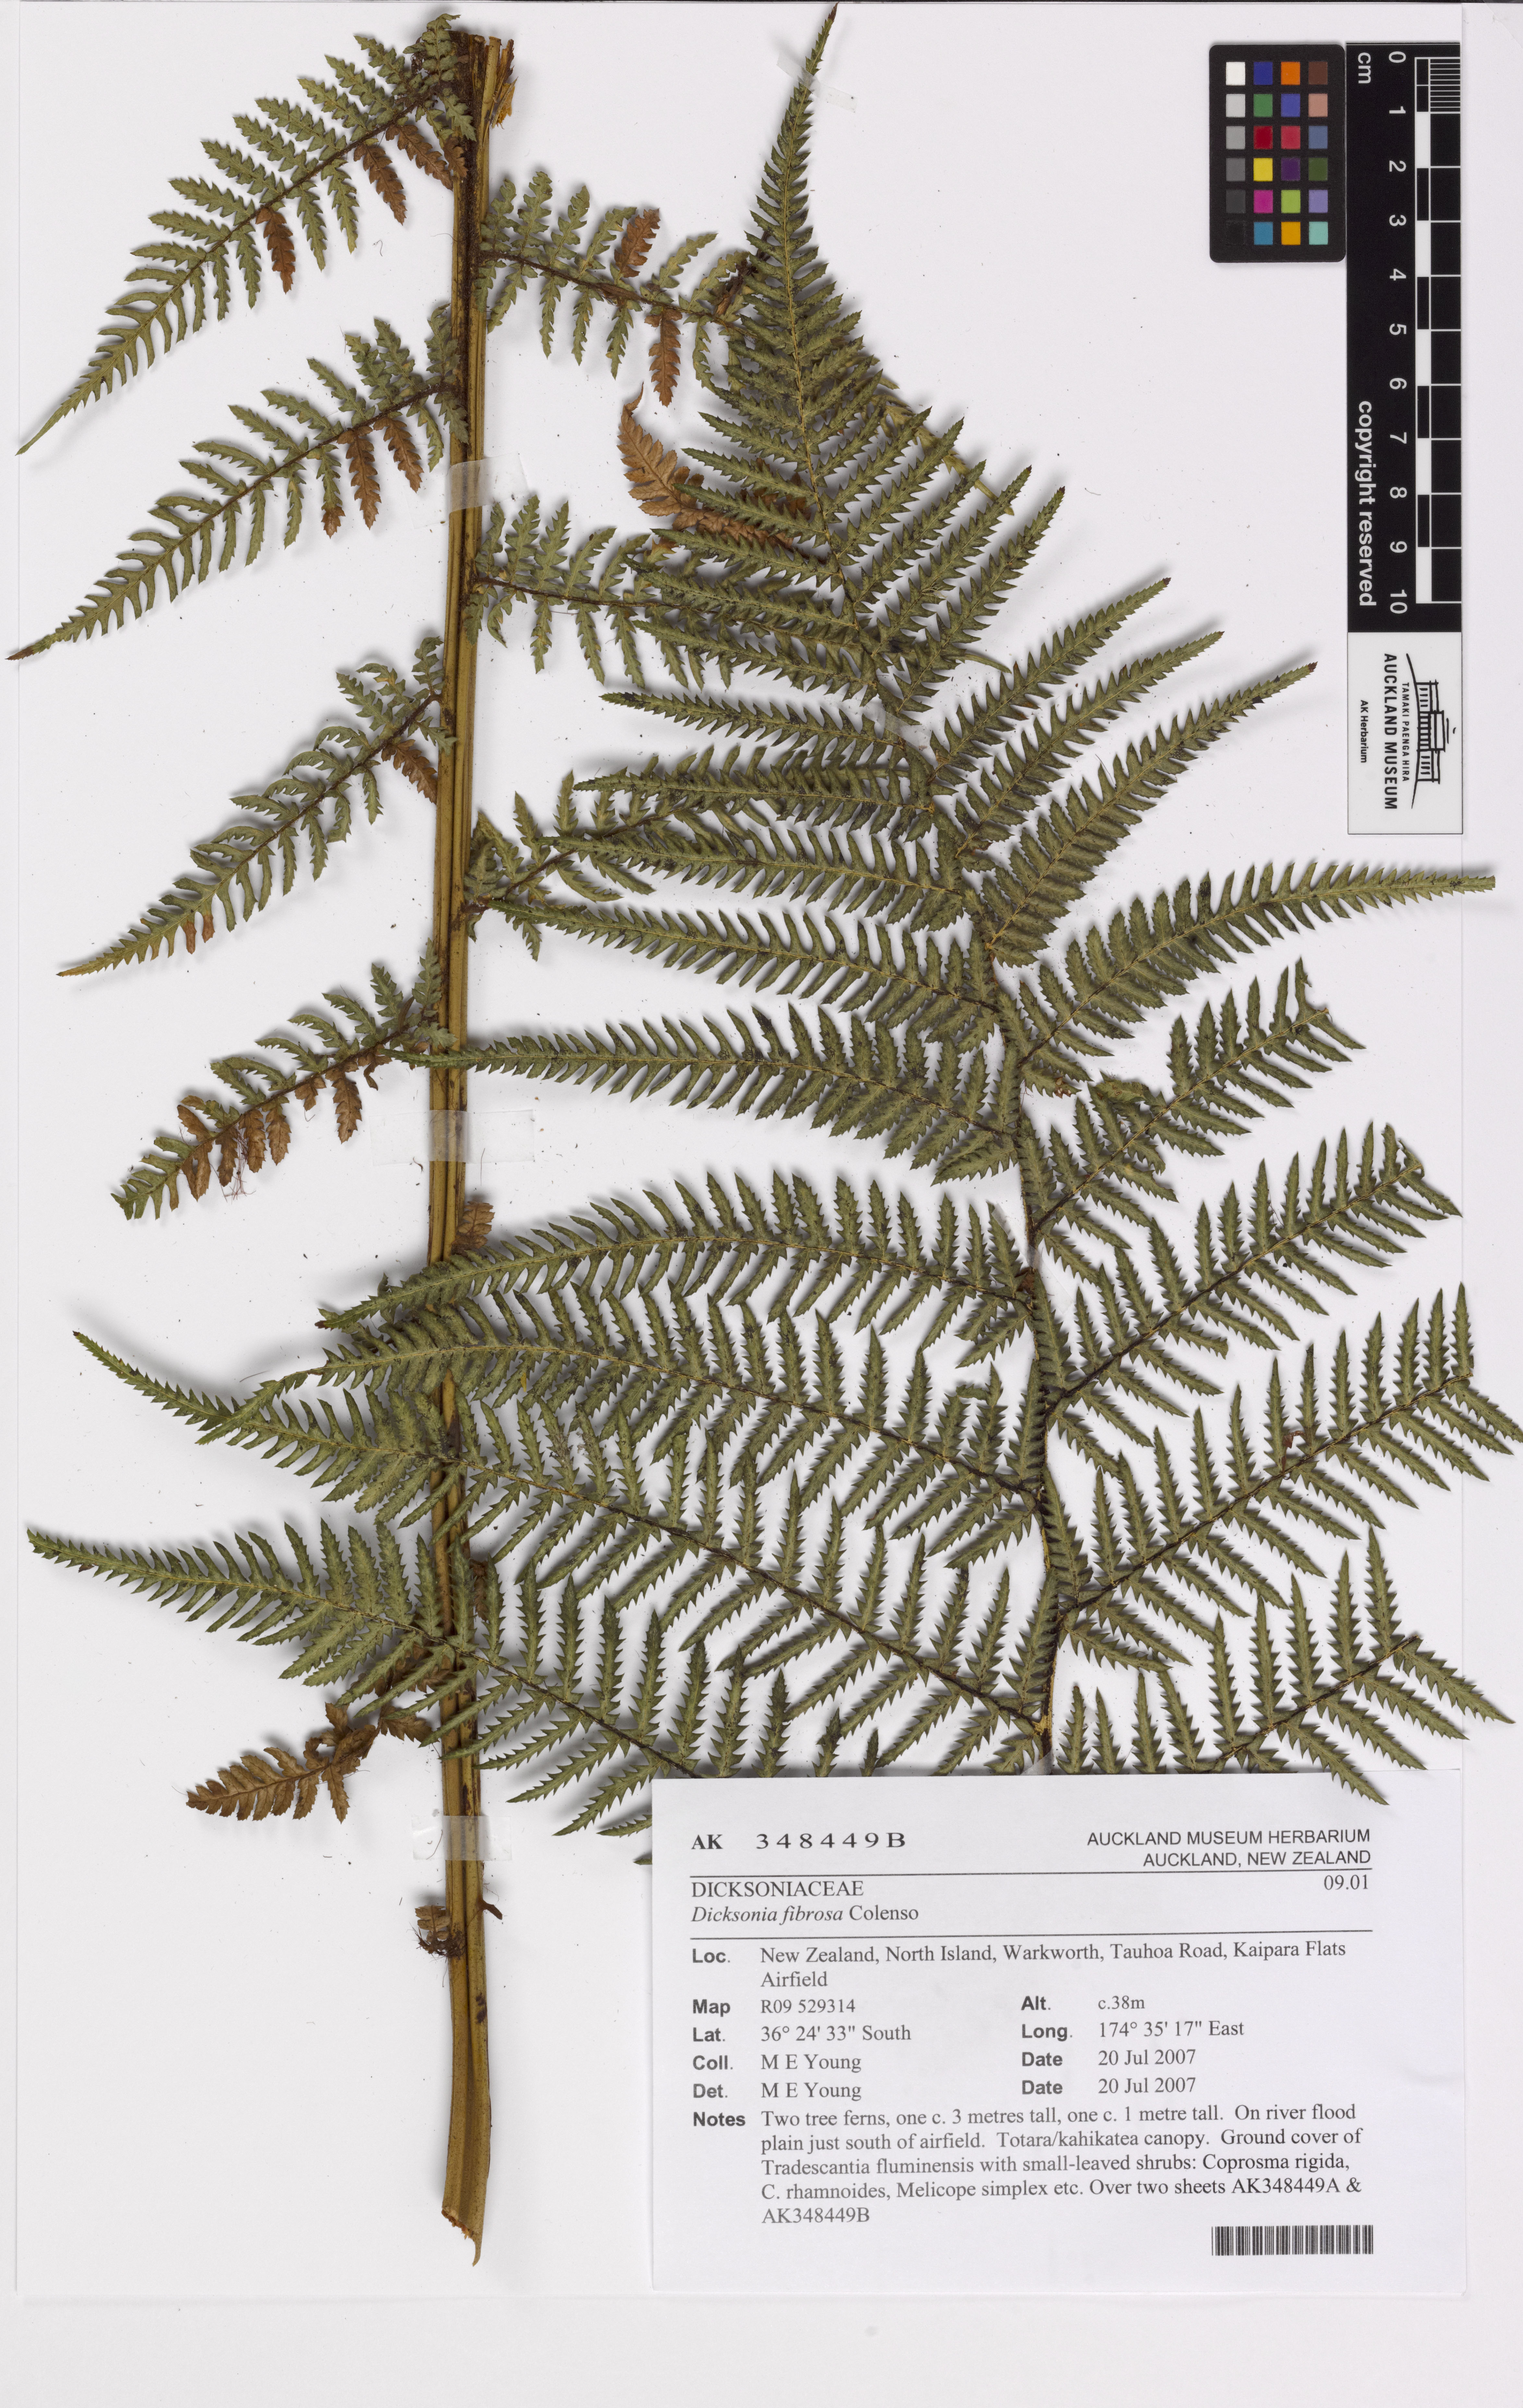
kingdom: Plantae
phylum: Tracheophyta
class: Polypodiopsida
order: Cyatheales
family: Dicksoniaceae
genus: Dicksonia
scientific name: Dicksonia fibrosa
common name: Golden tree fern
